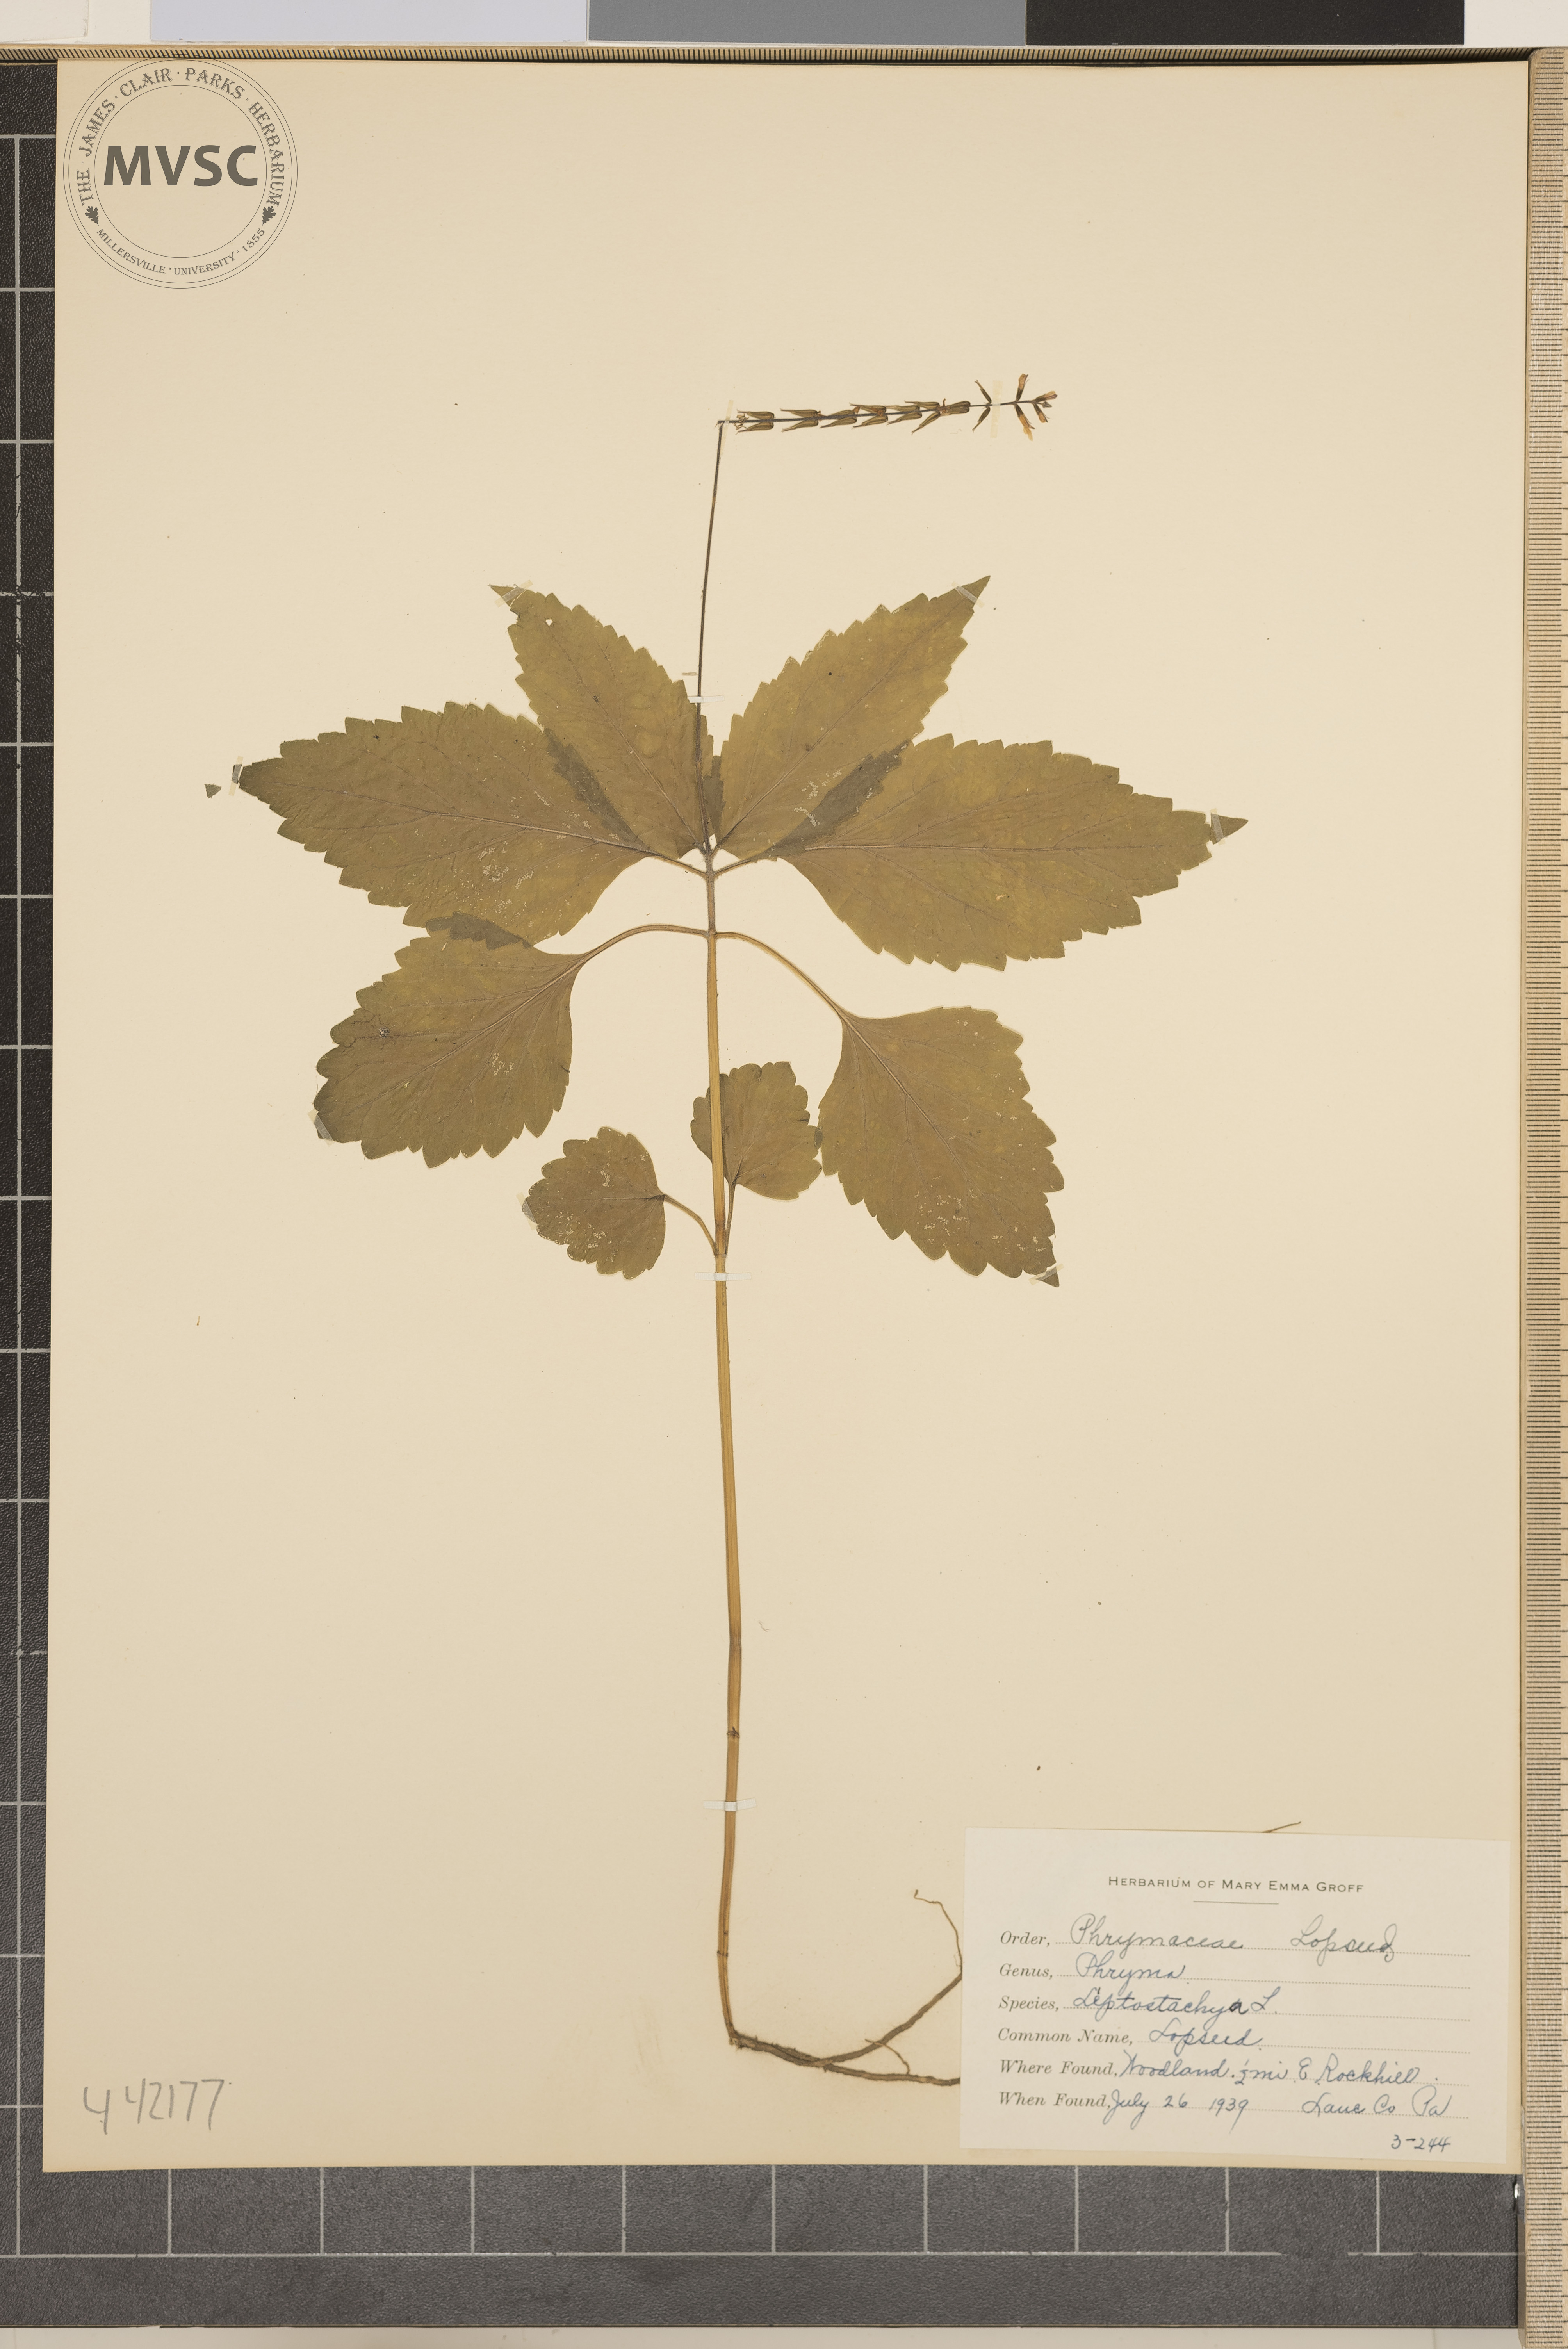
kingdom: Plantae
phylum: Tracheophyta
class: Magnoliopsida
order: Lamiales
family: Phrymaceae
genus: Phryma
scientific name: Phryma leptostachya
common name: Lopseed
